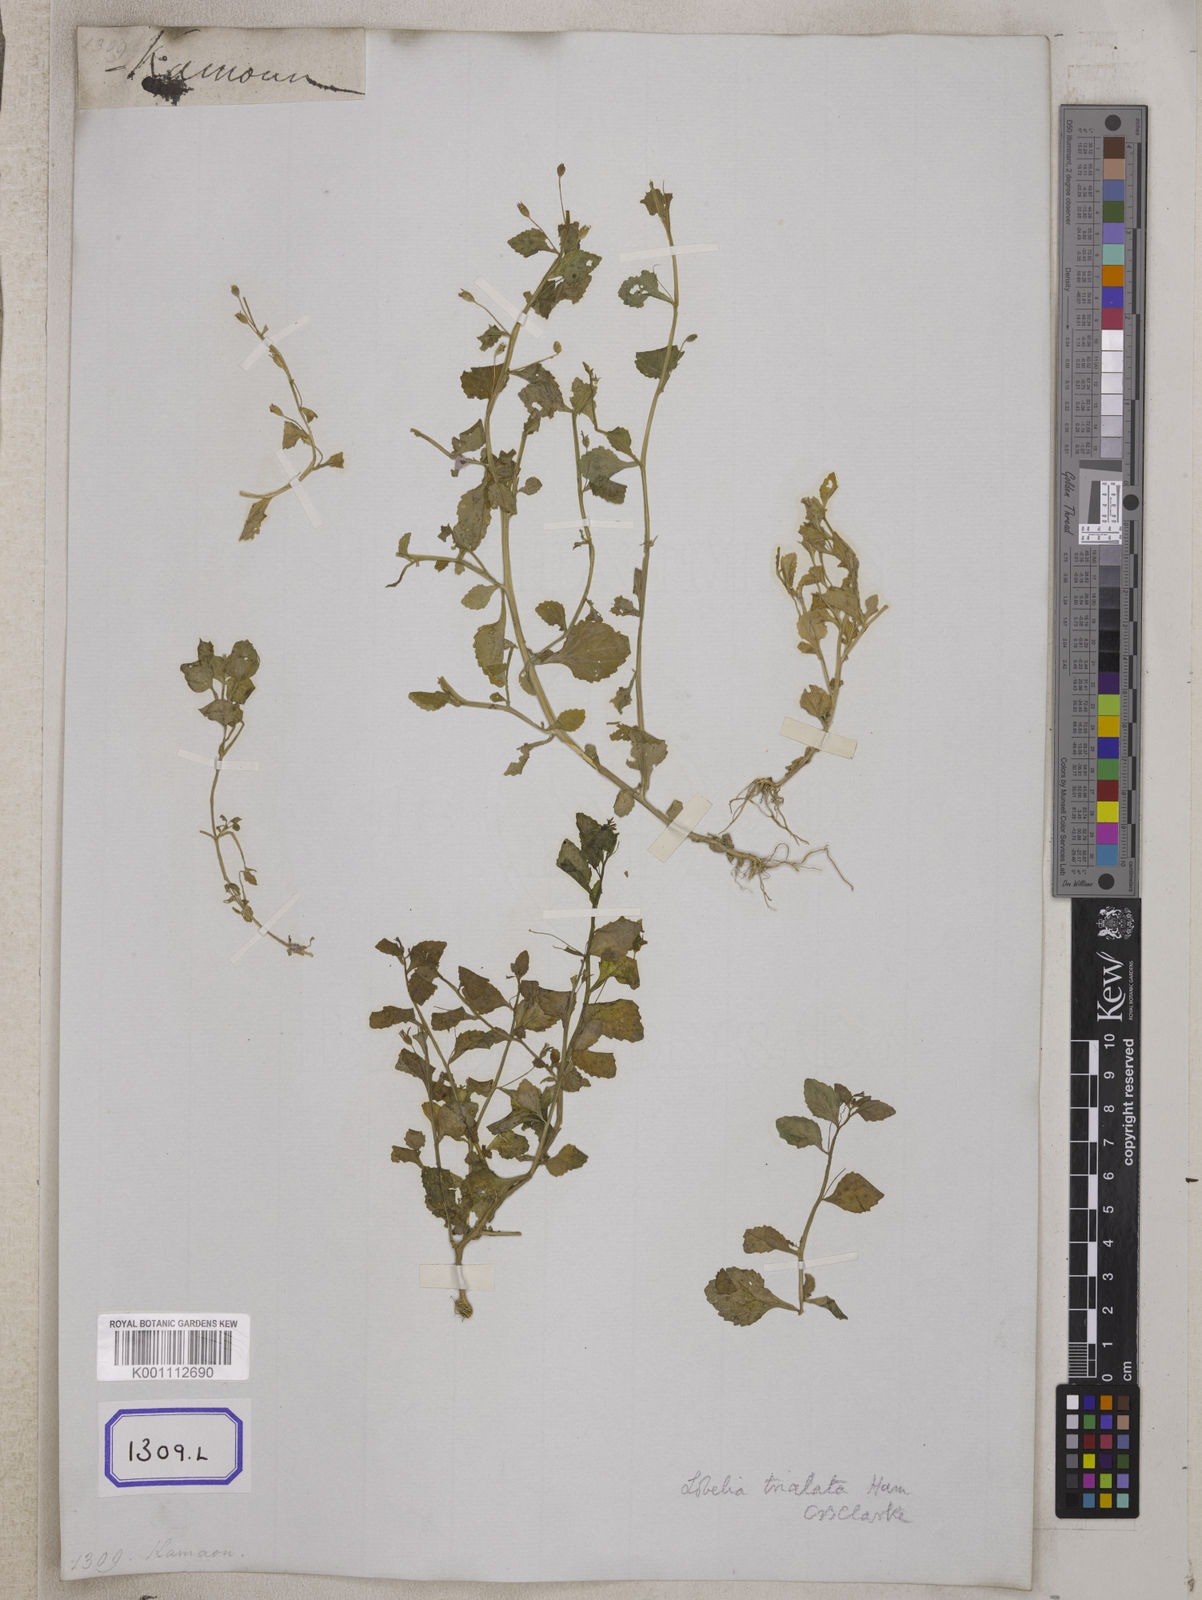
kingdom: Plantae
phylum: Tracheophyta
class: Magnoliopsida
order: Asterales
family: Campanulaceae
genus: Lobelia
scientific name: Lobelia alsinoides
